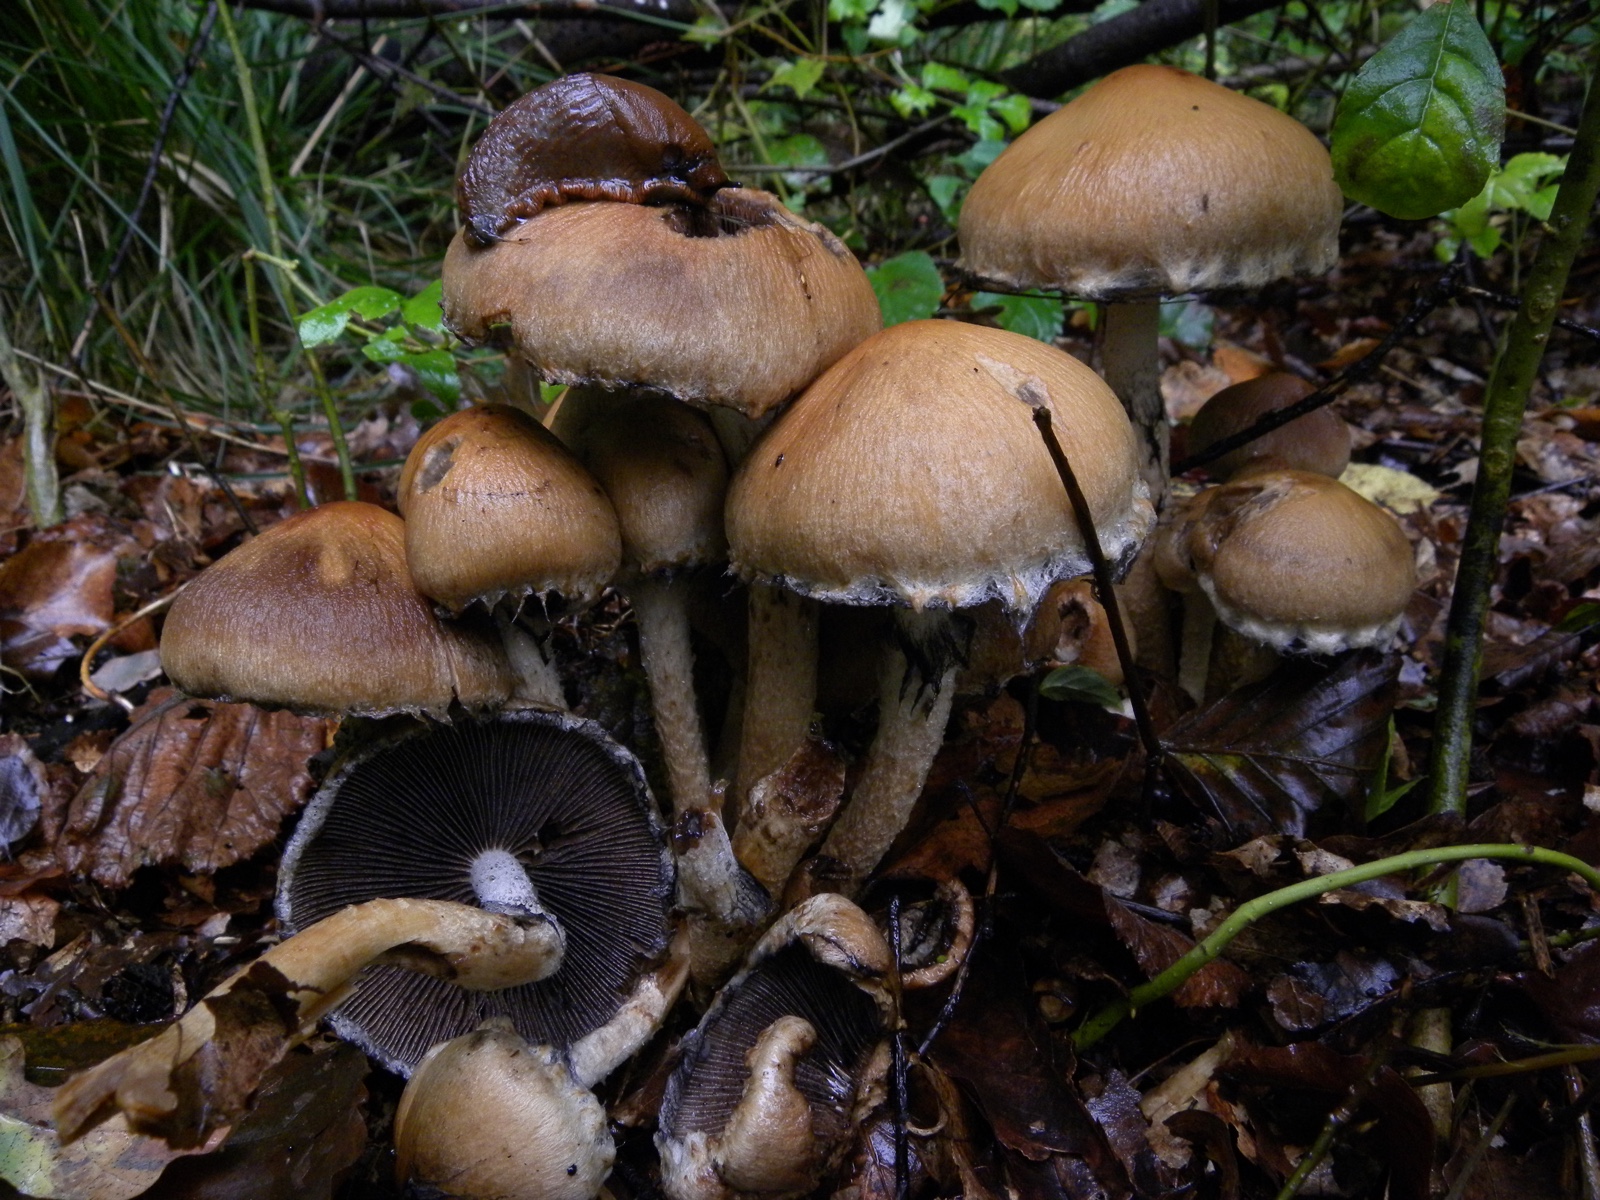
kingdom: Fungi
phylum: Basidiomycota
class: Agaricomycetes
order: Agaricales
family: Psathyrellaceae
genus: Lacrymaria
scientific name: Lacrymaria lacrymabunda
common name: grædende mørkhat
